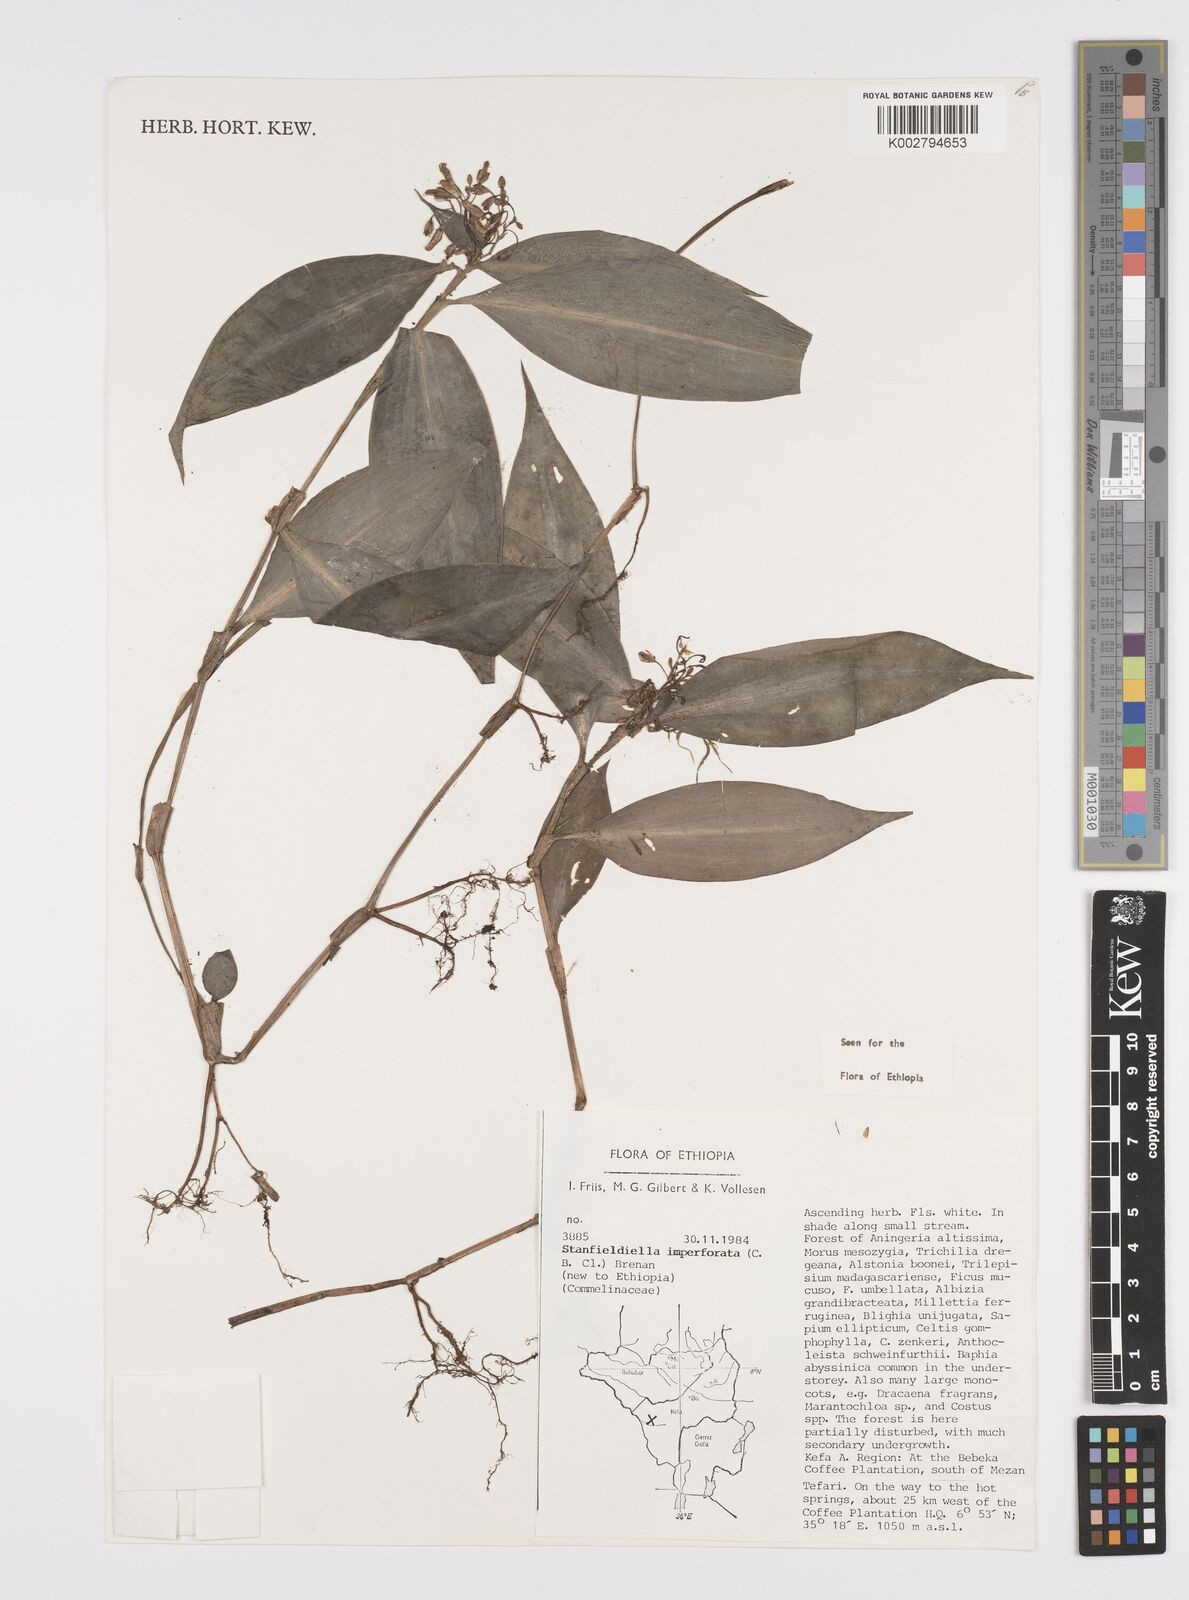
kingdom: Plantae
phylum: Tracheophyta
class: Liliopsida
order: Commelinales
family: Commelinaceae
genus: Stanfieldiella
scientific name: Stanfieldiella imperforata
